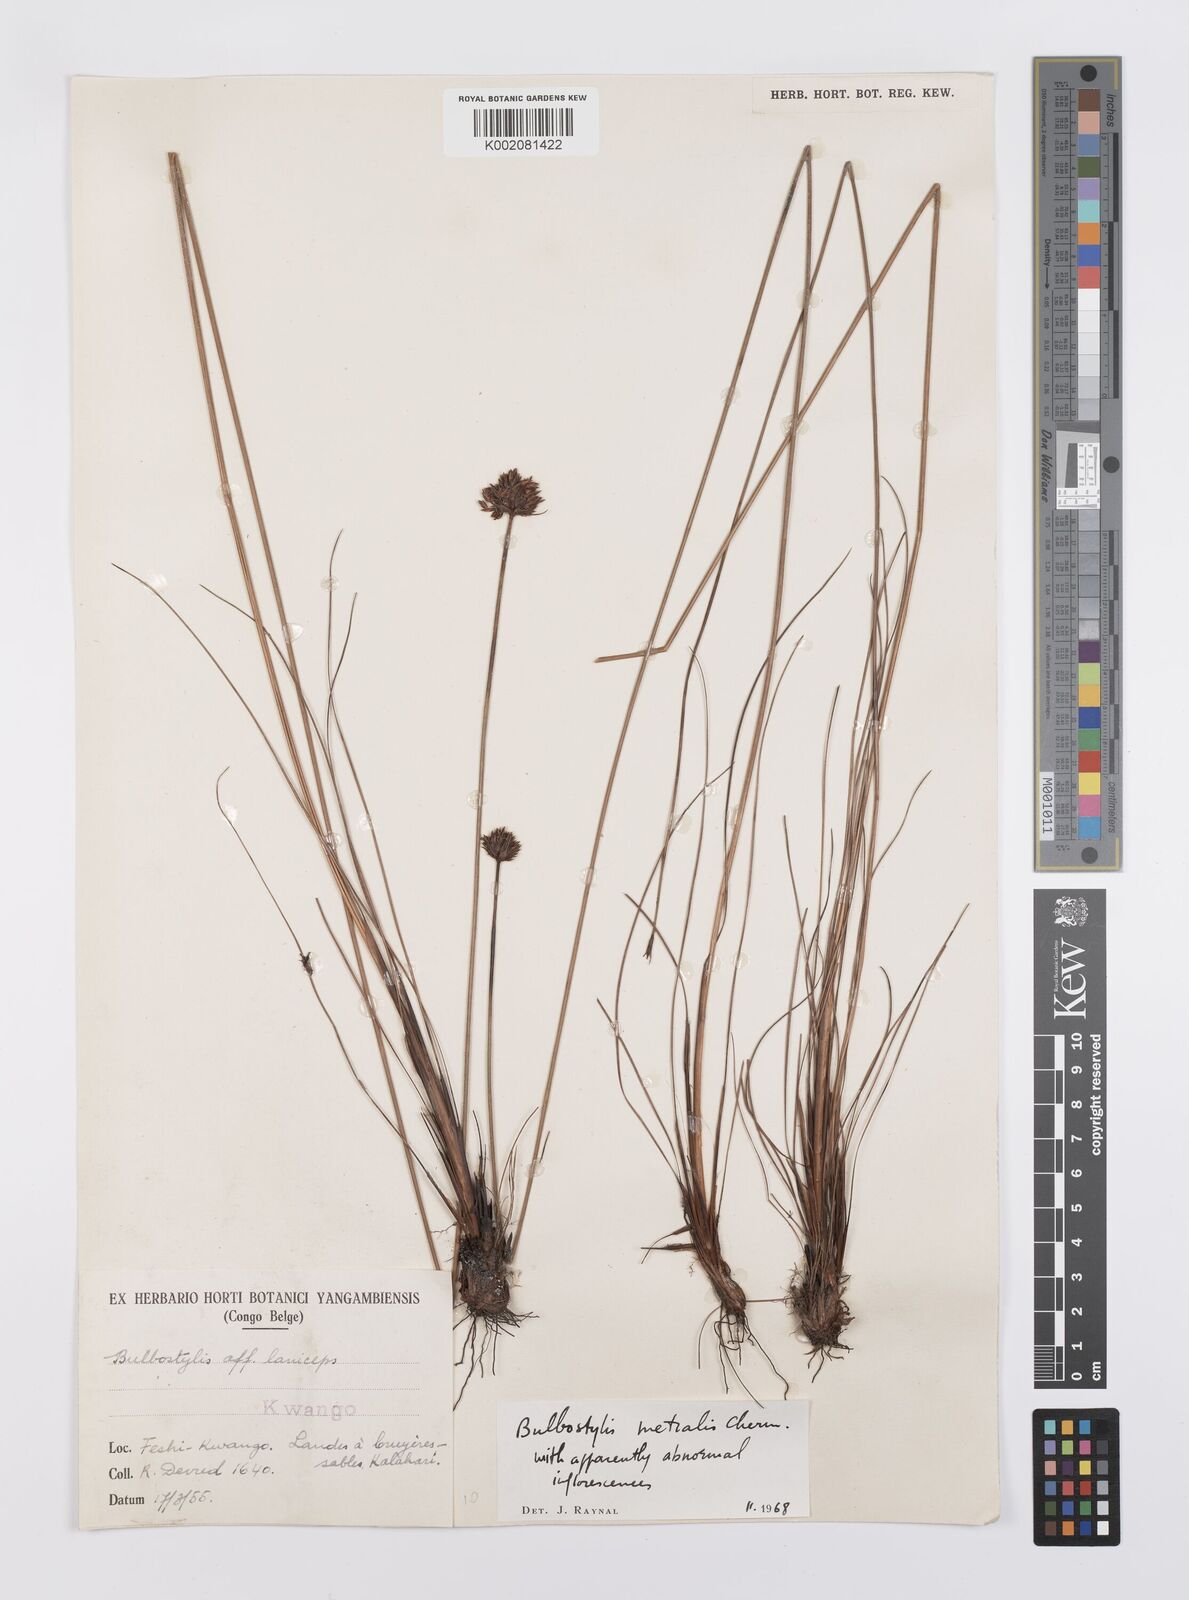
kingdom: Plantae
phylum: Tracheophyta
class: Liliopsida
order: Poales
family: Cyperaceae
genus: Bulbostylis
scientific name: Bulbostylis filamentosa
